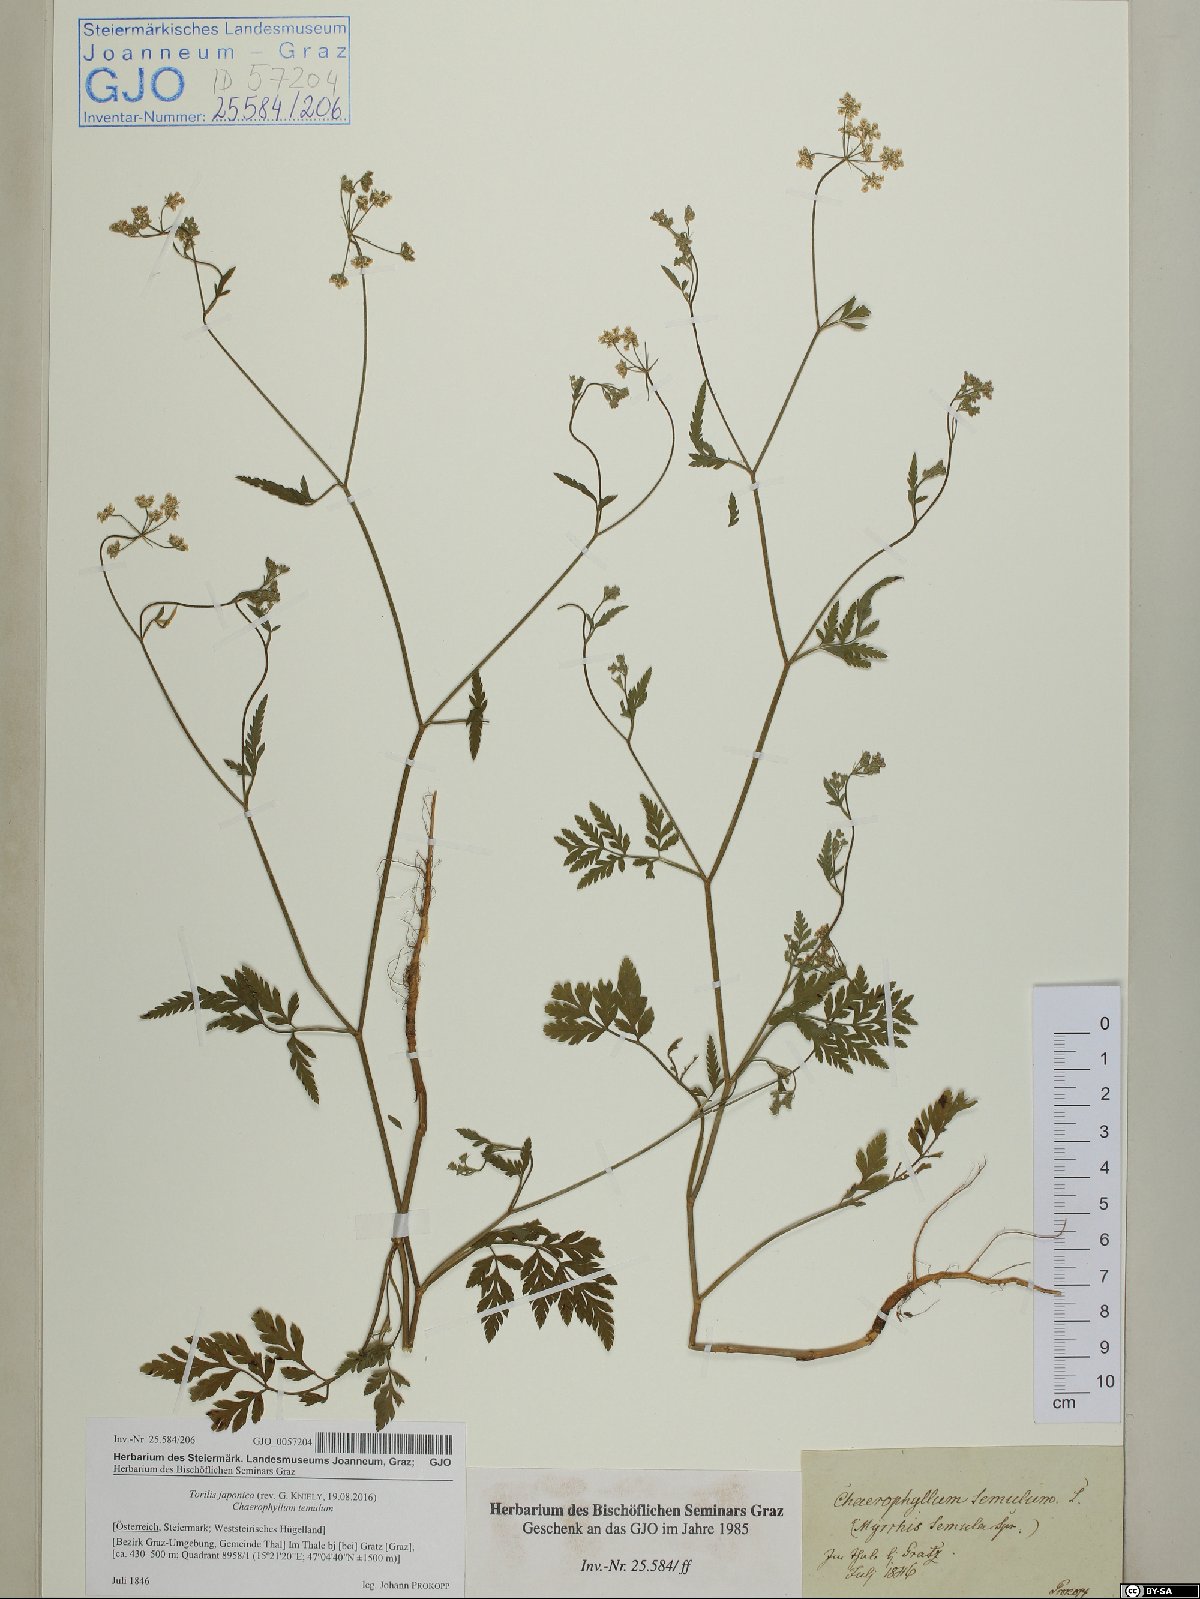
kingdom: Plantae
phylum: Tracheophyta
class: Magnoliopsida
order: Apiales
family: Apiaceae
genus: Torilis
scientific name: Torilis japonica
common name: Upright hedge-parsley
